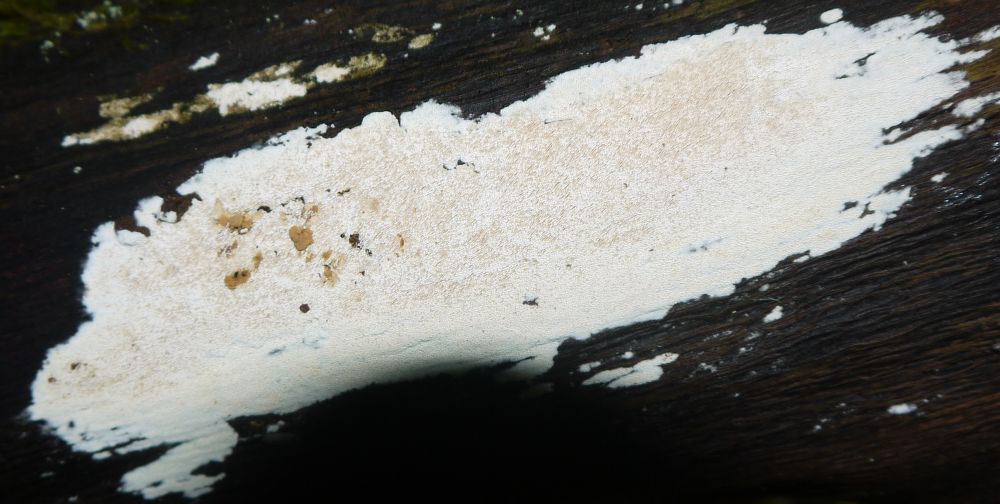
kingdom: Fungi
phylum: Basidiomycota
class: Agaricomycetes
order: Hymenochaetales
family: Schizoporaceae
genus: Xylodon
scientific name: Xylodon subtropicus
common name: labyrint-tandsvamp
